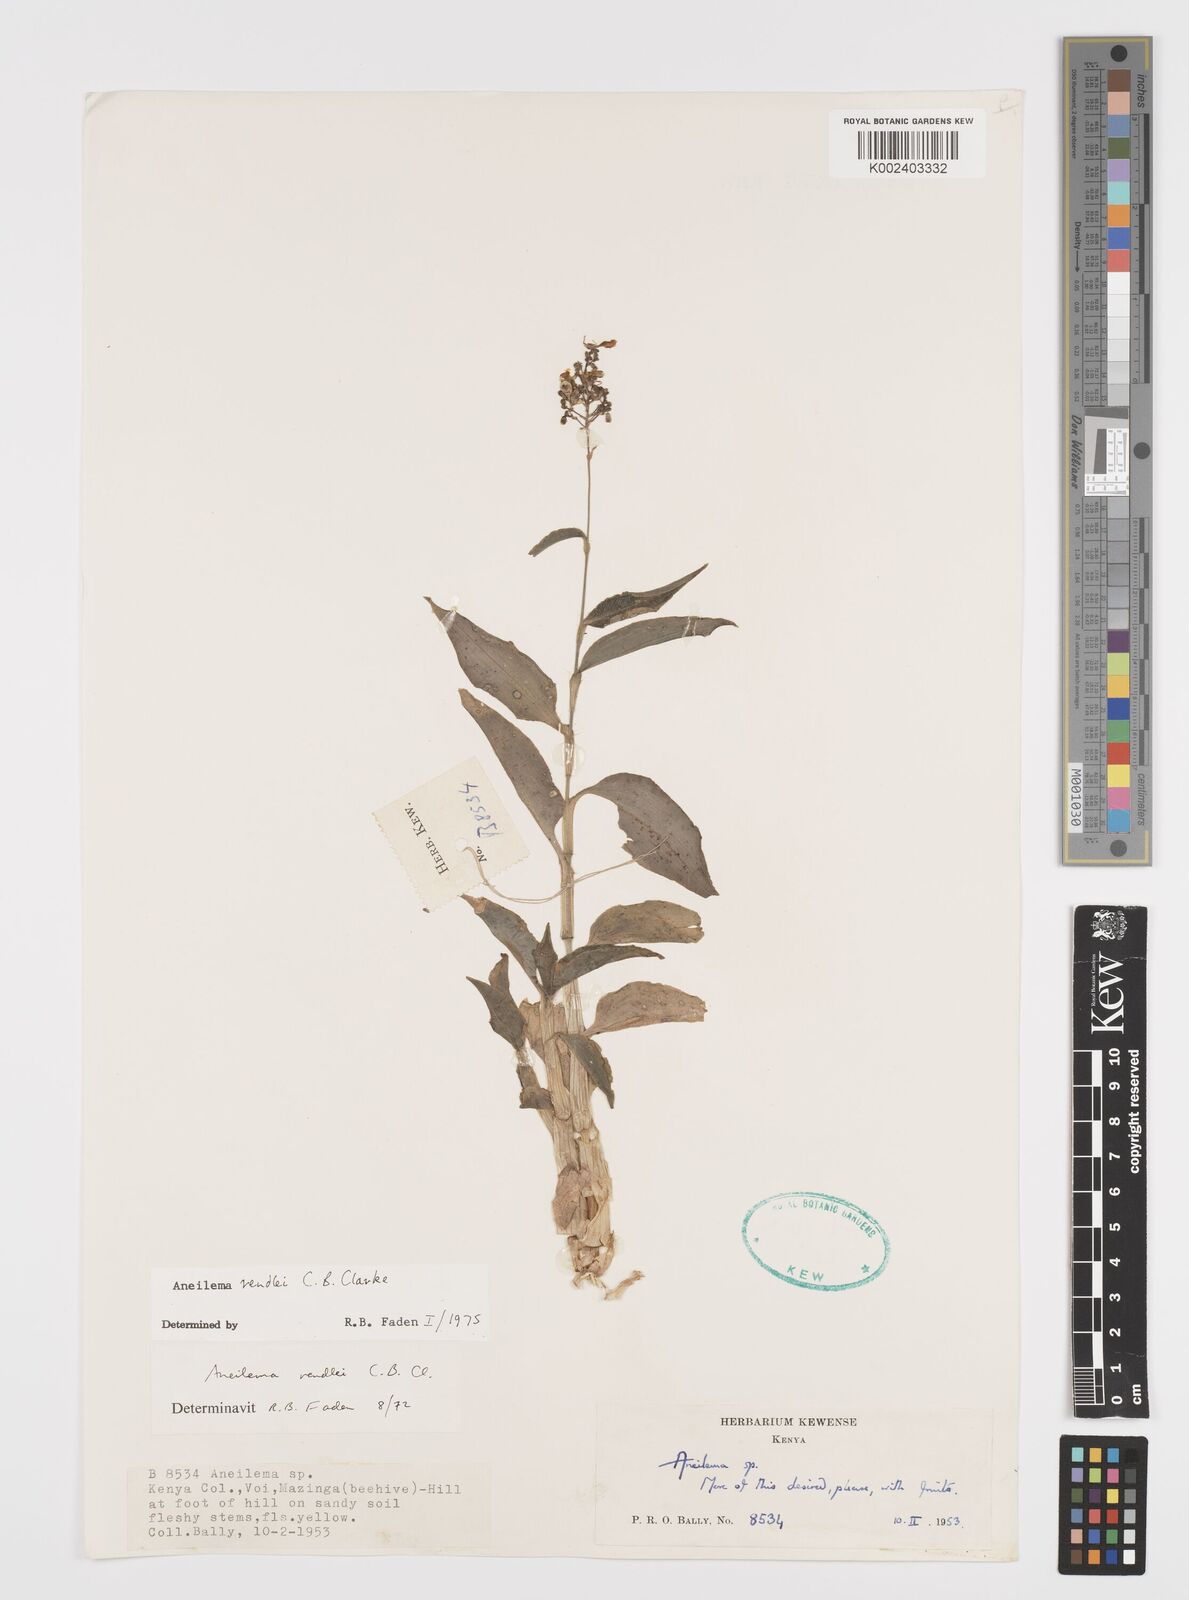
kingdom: Plantae
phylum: Tracheophyta
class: Liliopsida
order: Commelinales
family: Commelinaceae
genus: Aneilema
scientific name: Aneilema rendlei
